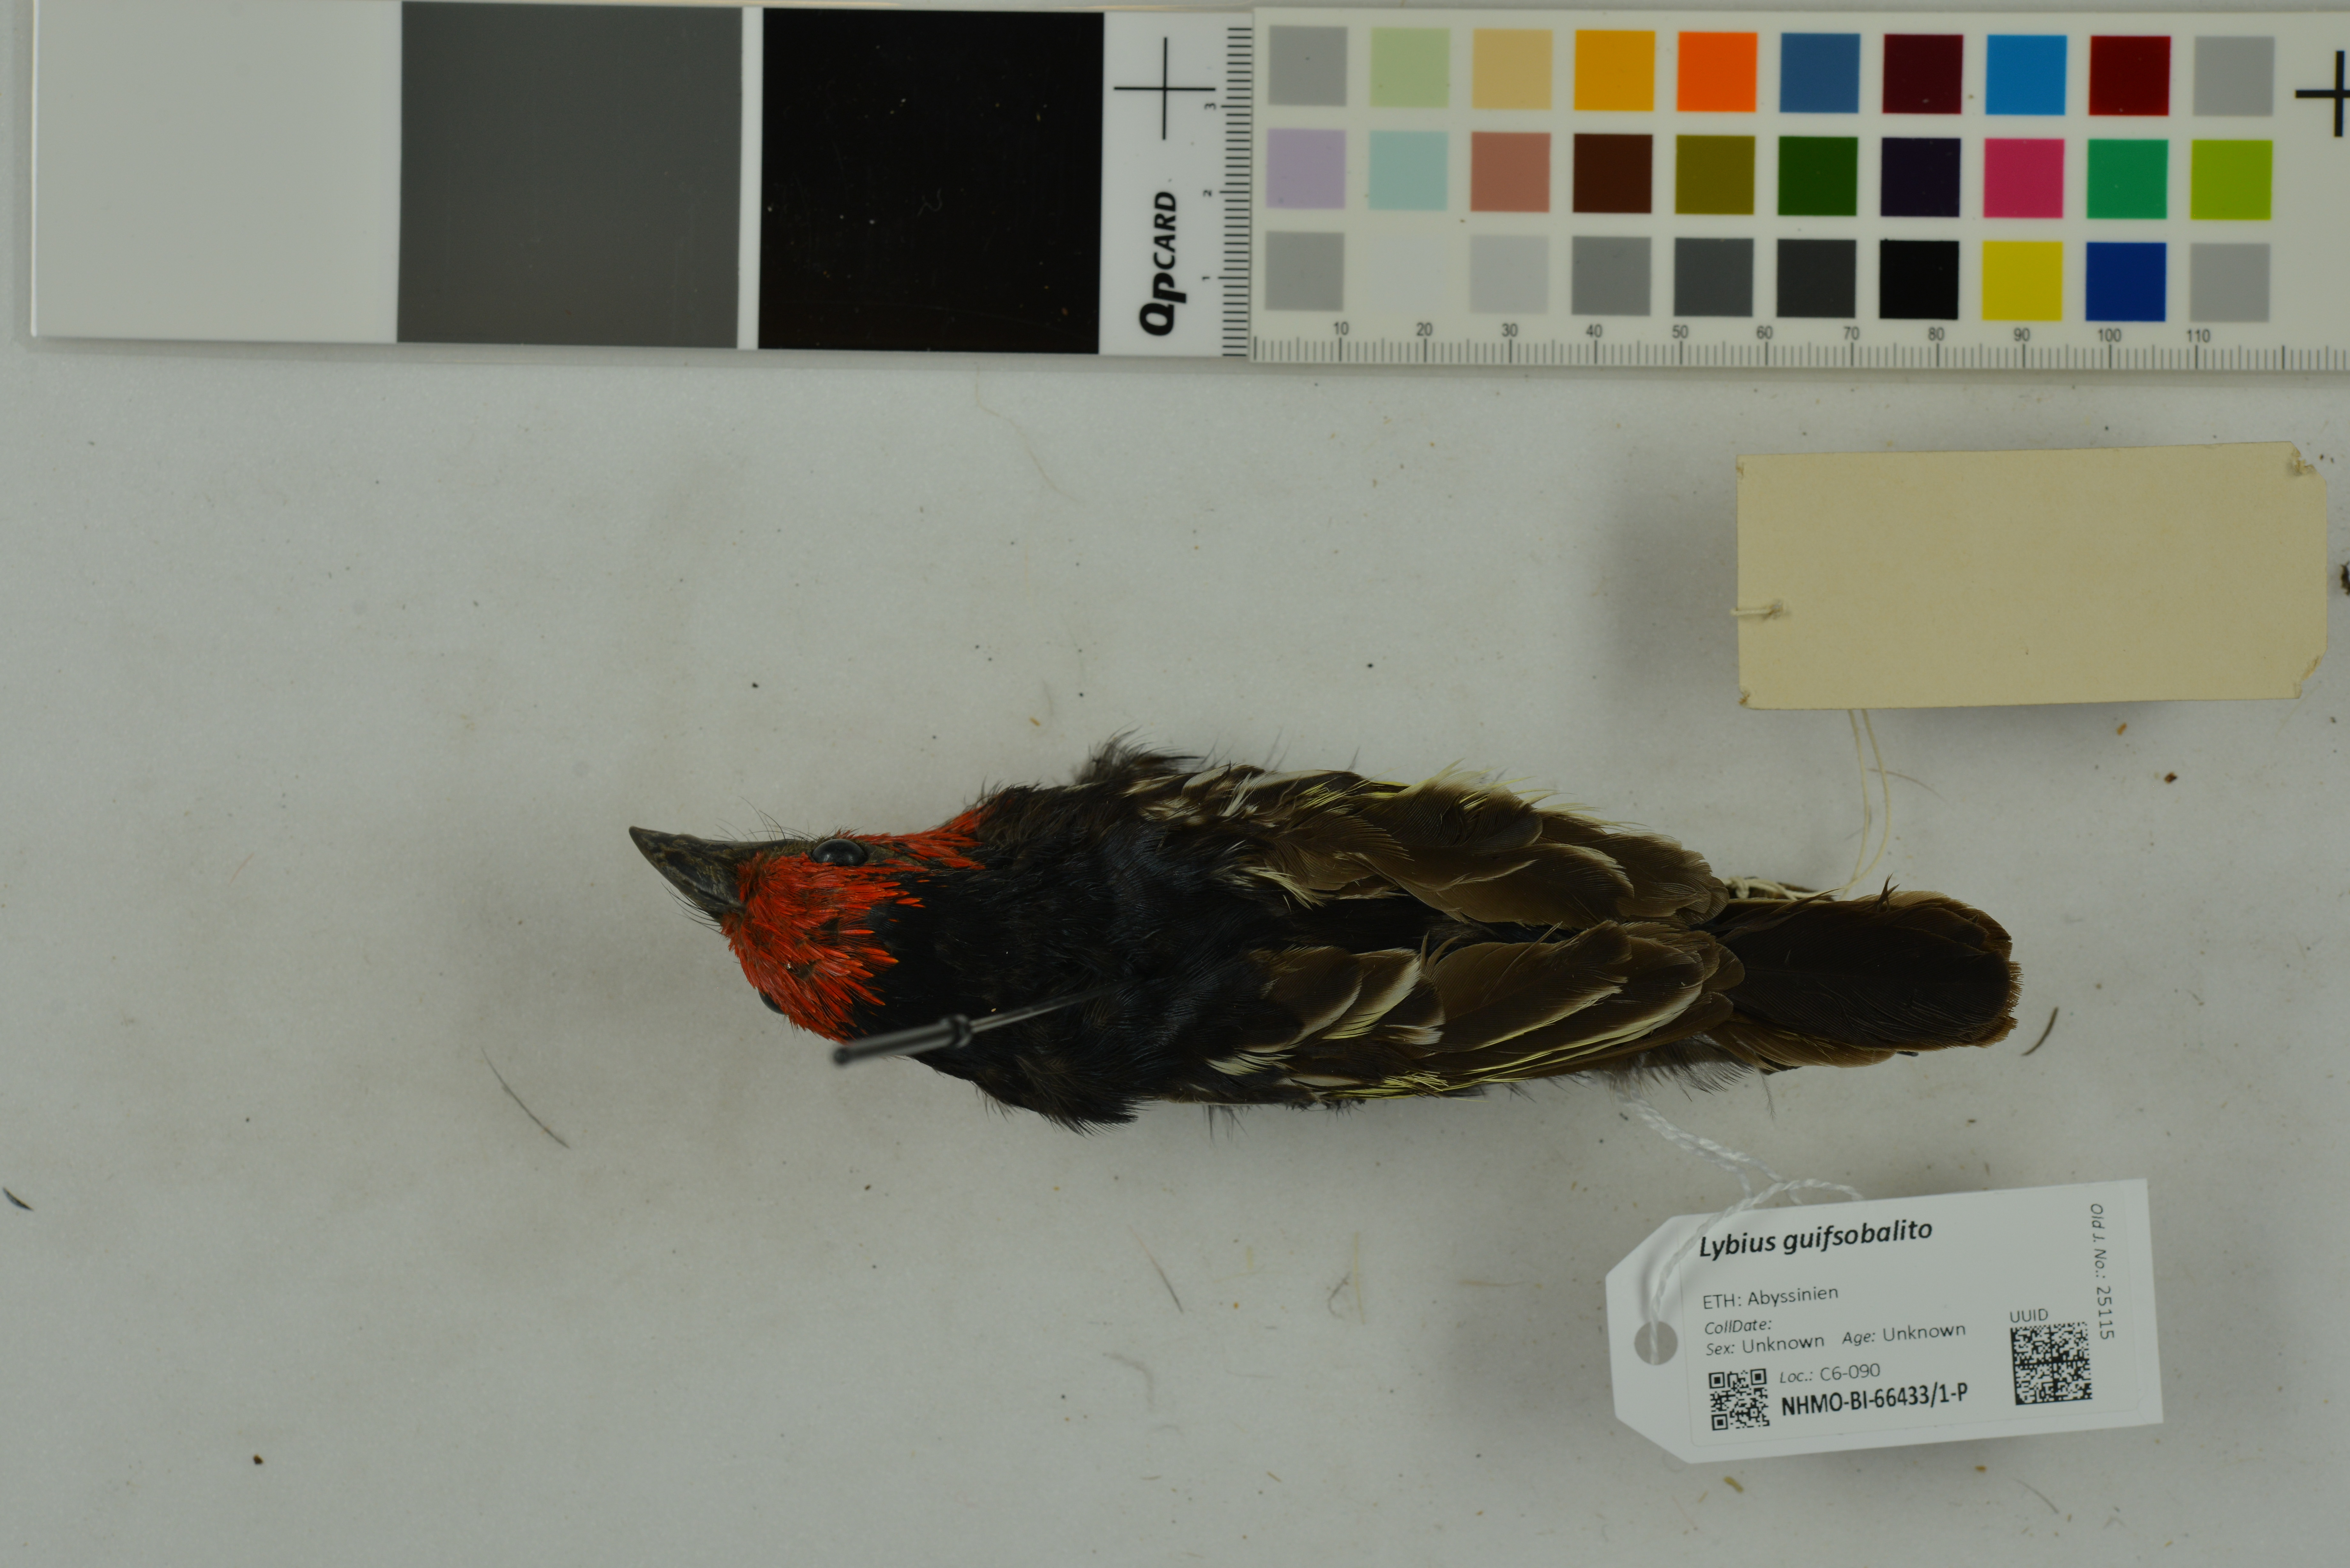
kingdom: Animalia
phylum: Chordata
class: Aves
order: Piciformes
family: Lybiidae
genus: Lybius
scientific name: Lybius guifsobalito
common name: Black-billed barbet
